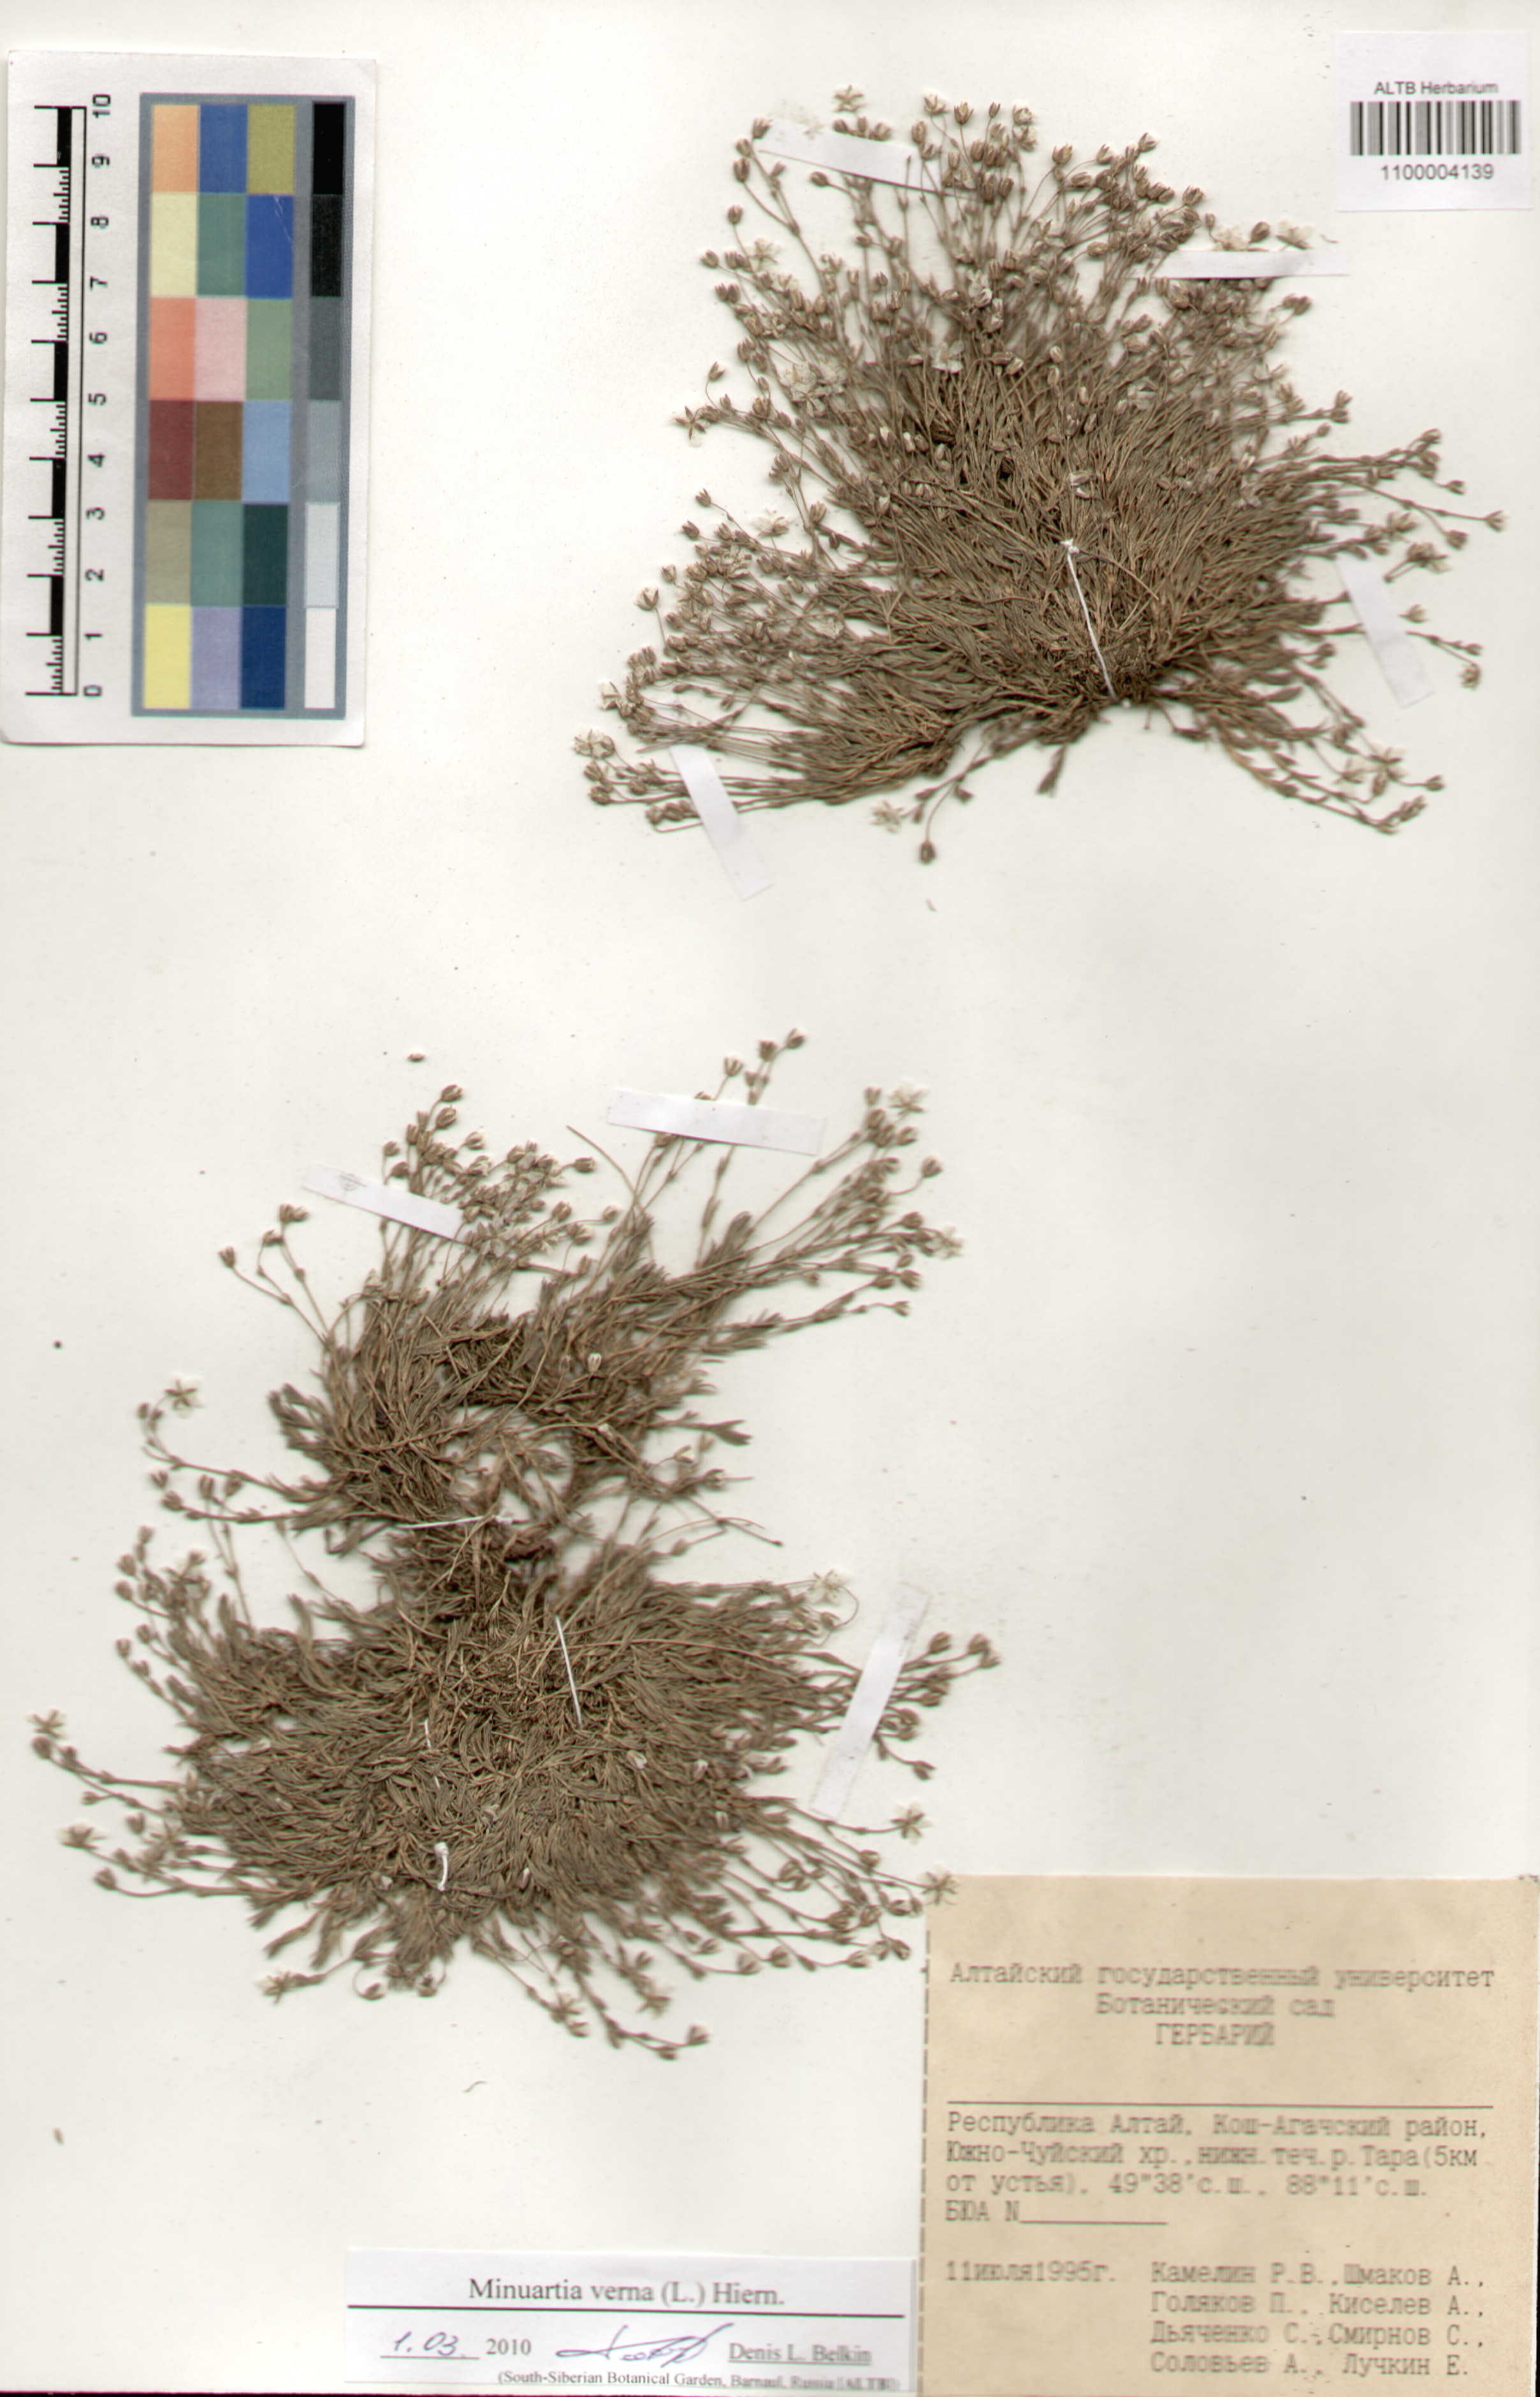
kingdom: Plantae
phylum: Tracheophyta
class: Magnoliopsida
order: Caryophyllales
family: Caryophyllaceae
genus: Sabulina
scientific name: Sabulina verna
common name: Spring sandwort
